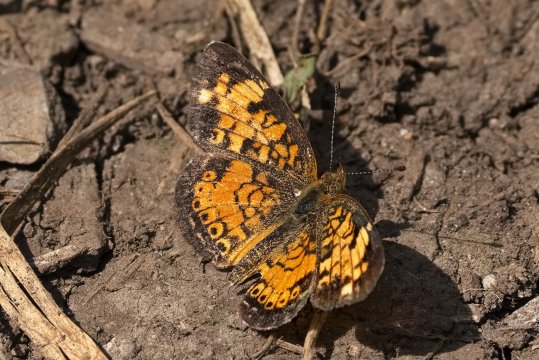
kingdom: Animalia
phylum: Arthropoda
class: Insecta
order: Lepidoptera
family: Nymphalidae
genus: Phyciodes
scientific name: Phyciodes tharos
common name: Pearl Crescent
